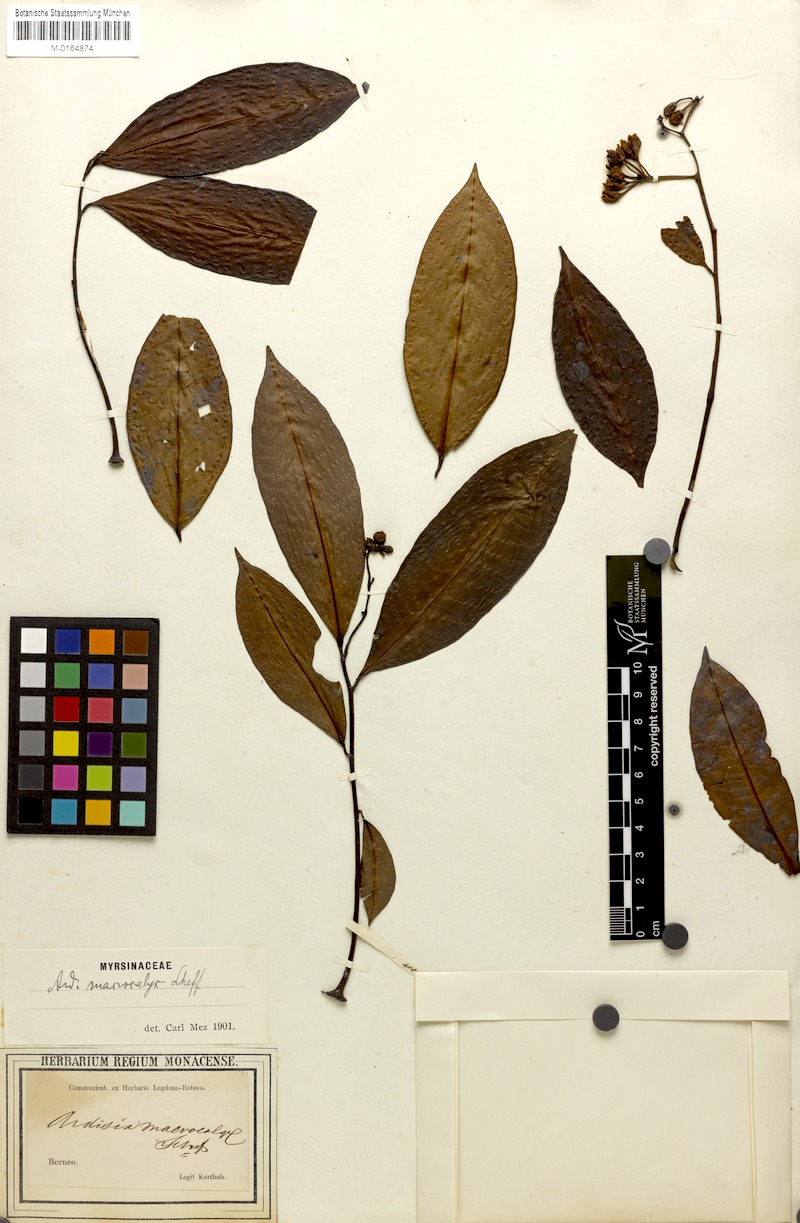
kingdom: Plantae
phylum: Tracheophyta
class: Magnoliopsida
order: Ericales
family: Primulaceae
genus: Ardisia
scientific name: Ardisia macrocalyx
